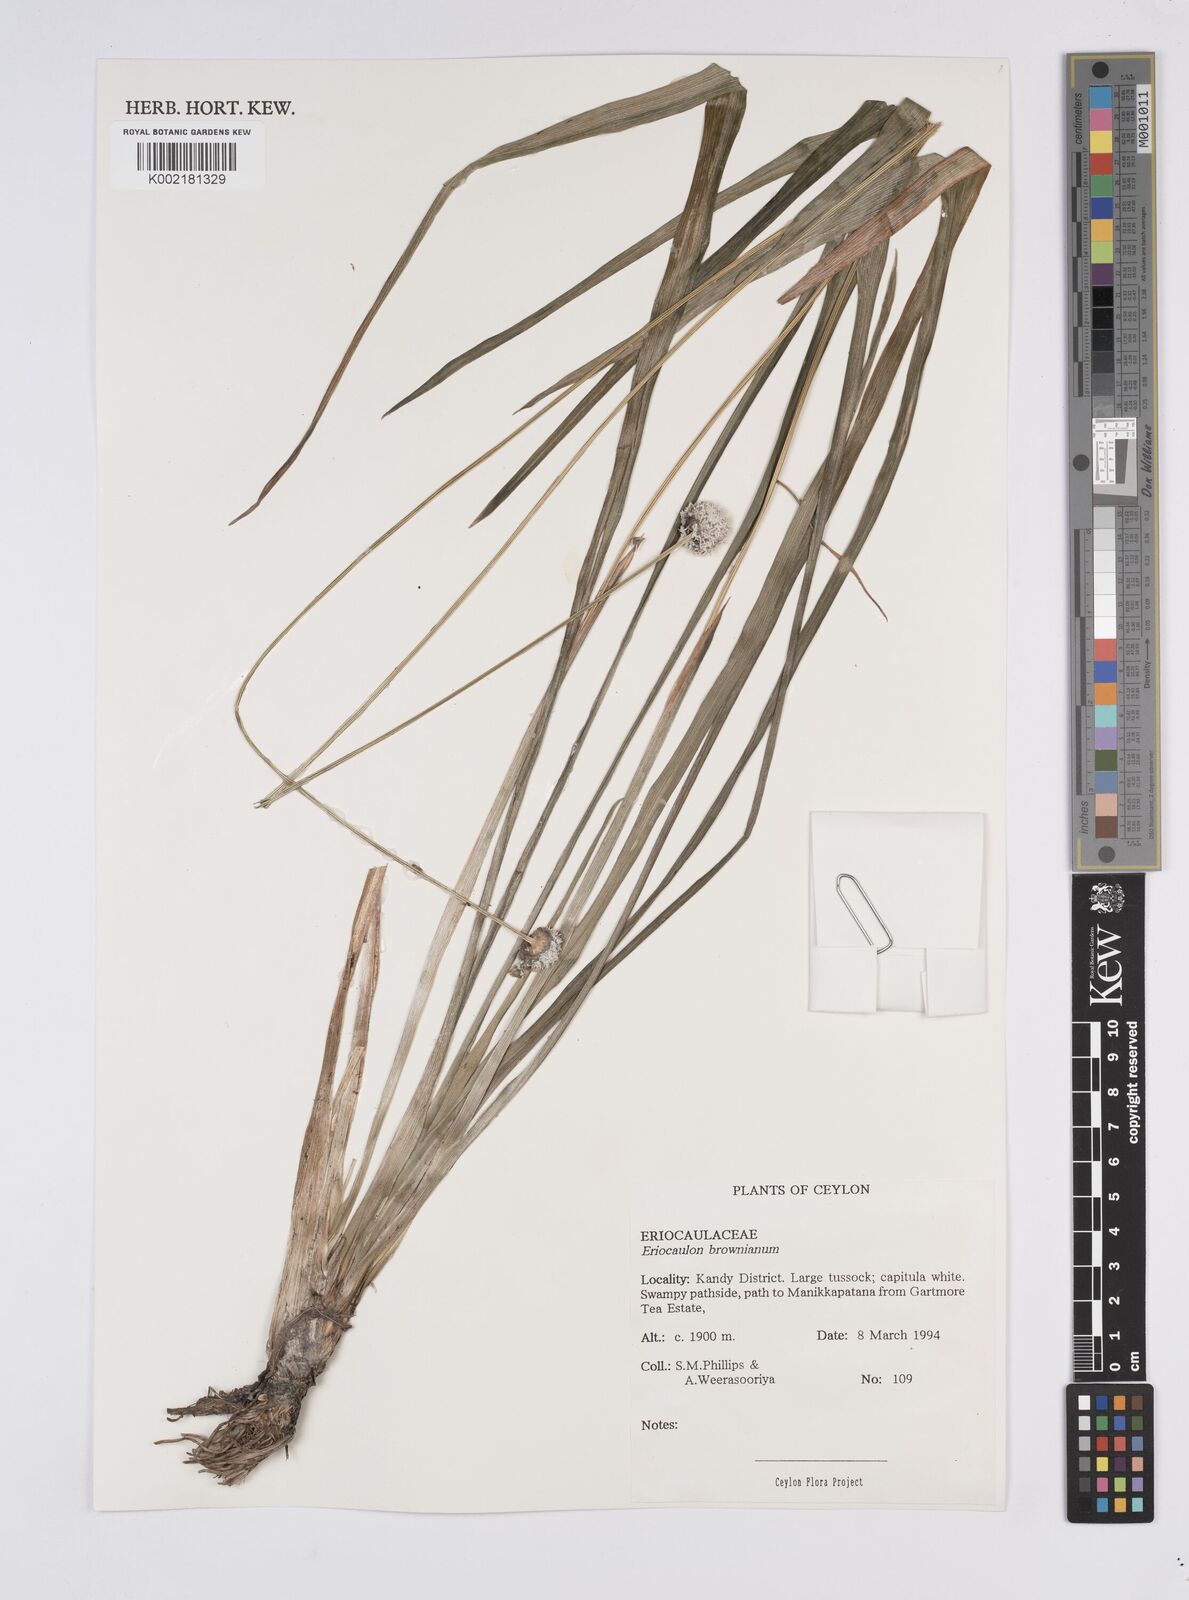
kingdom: Plantae
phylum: Tracheophyta
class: Liliopsida
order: Poales
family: Eriocaulaceae
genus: Eriocaulon
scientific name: Eriocaulon brownianum
